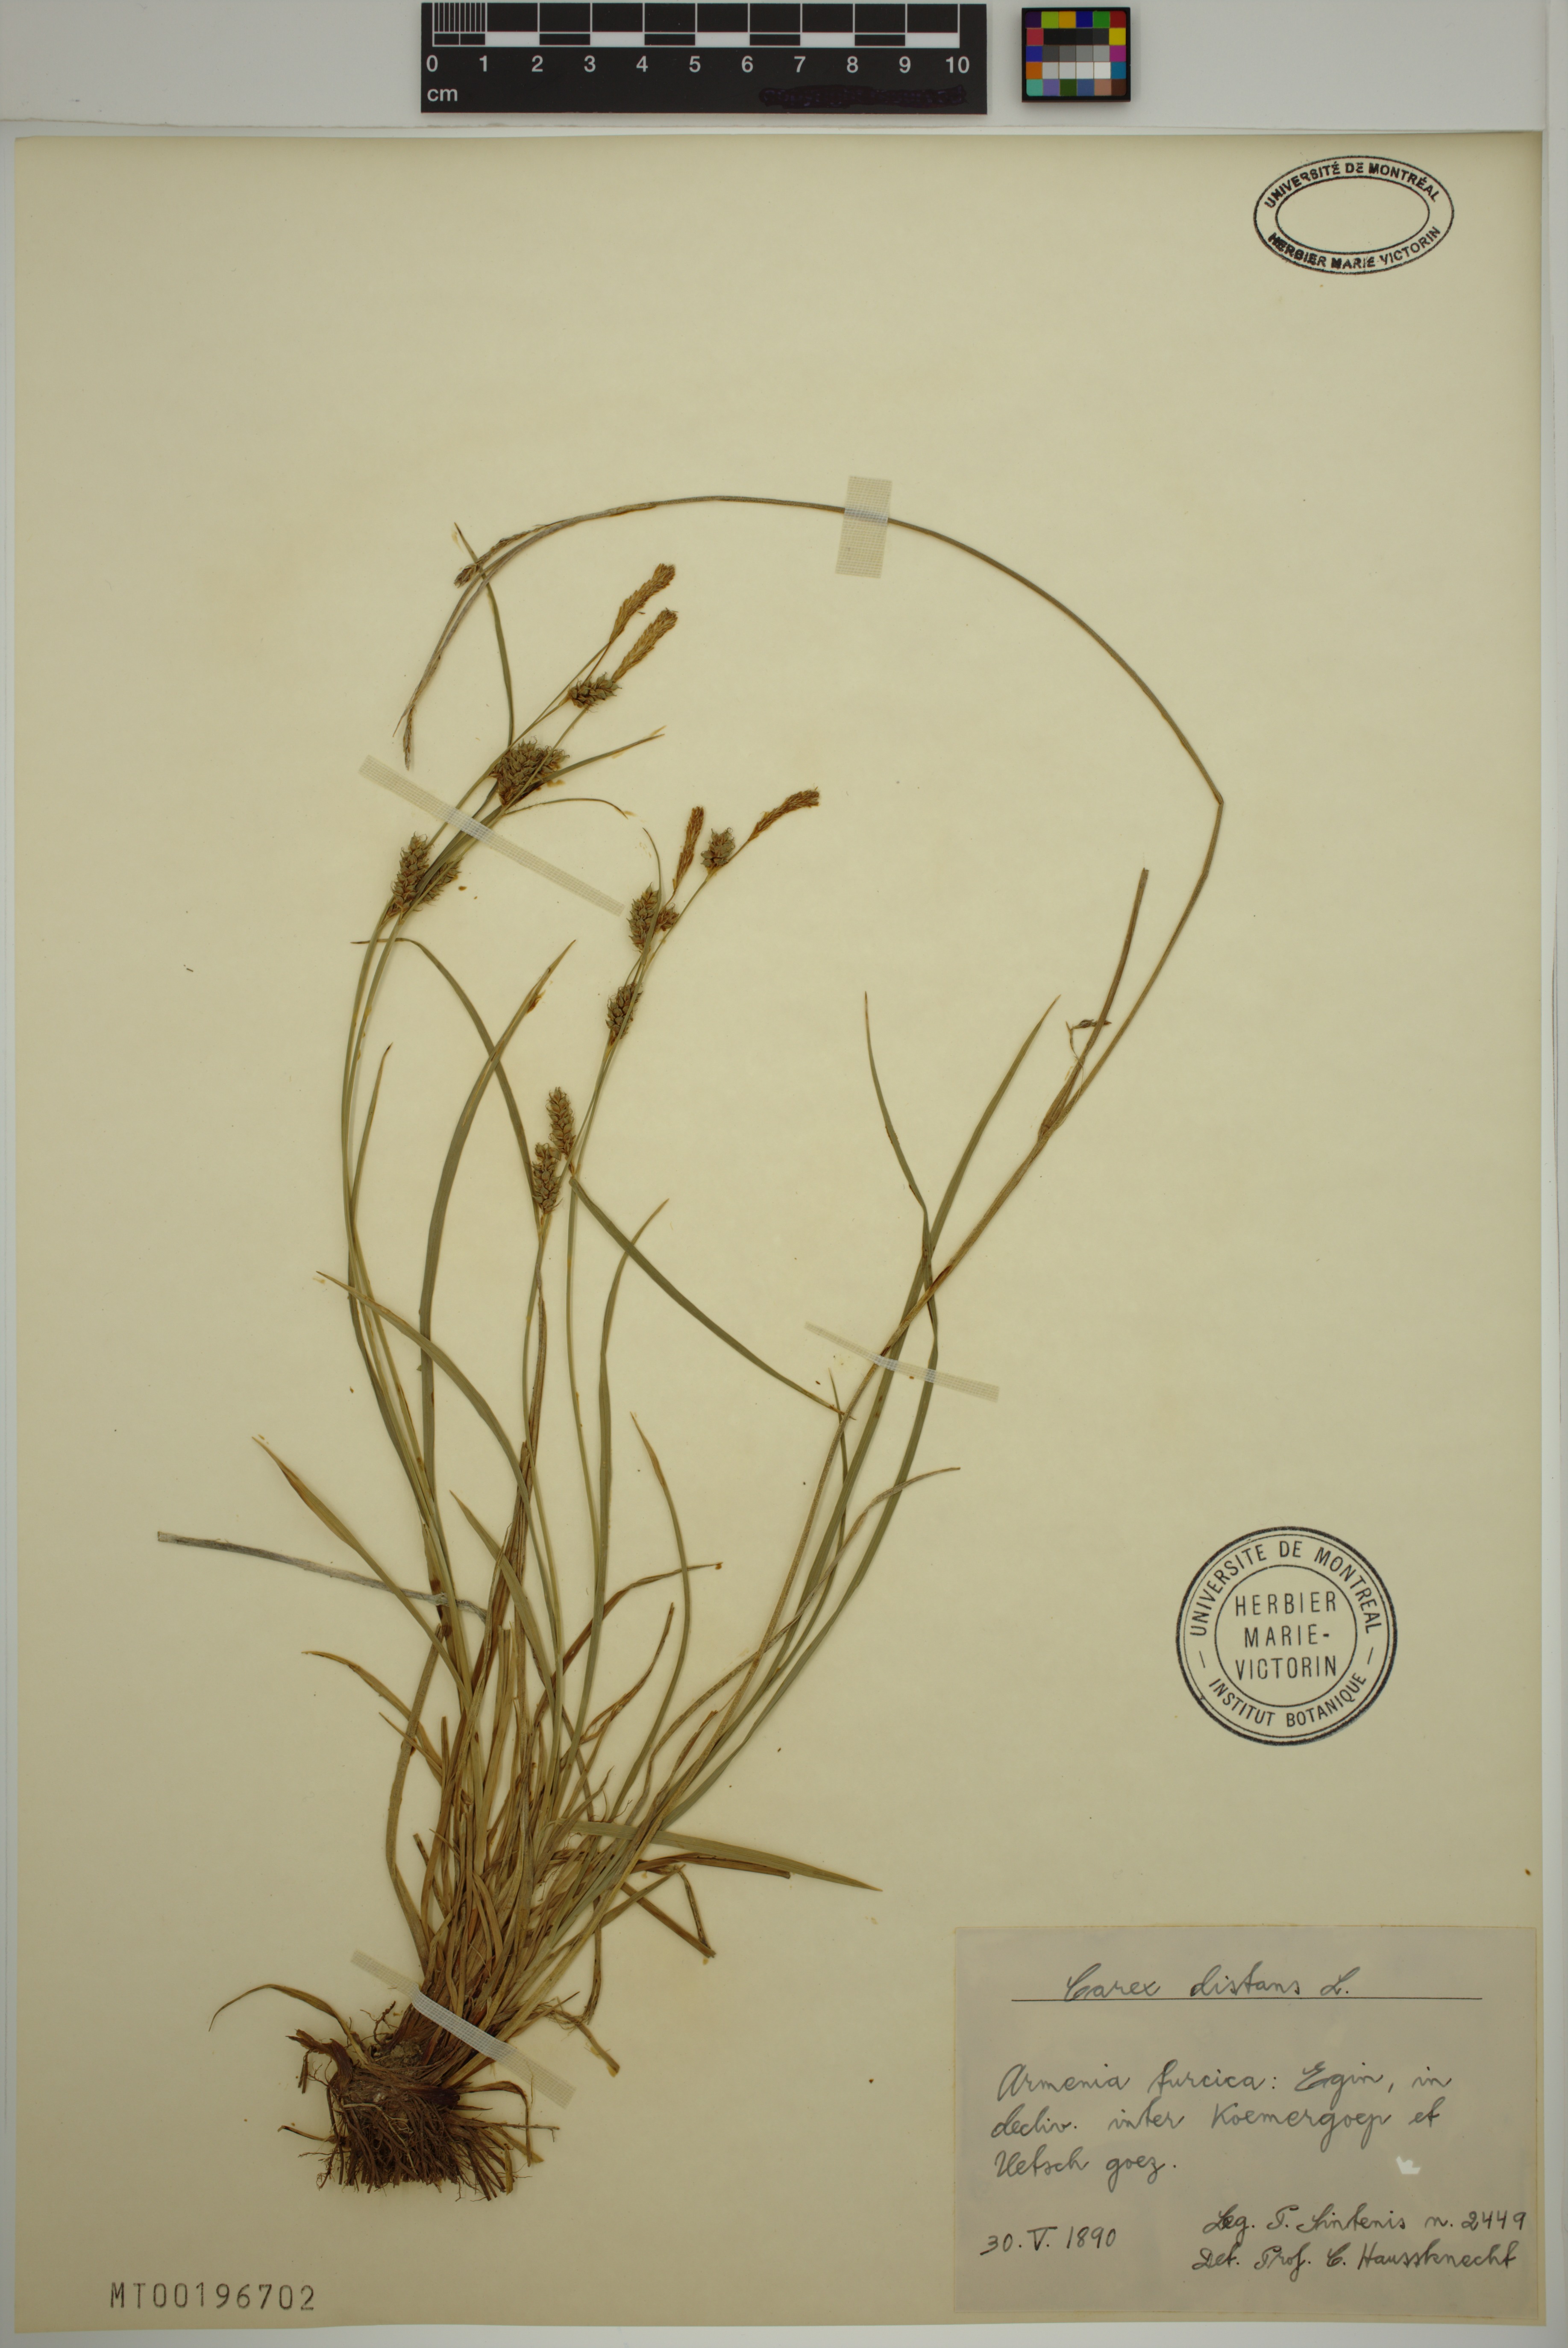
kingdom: Plantae
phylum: Tracheophyta
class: Liliopsida
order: Poales
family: Cyperaceae
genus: Carex
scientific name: Carex distans
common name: Distant sedge
